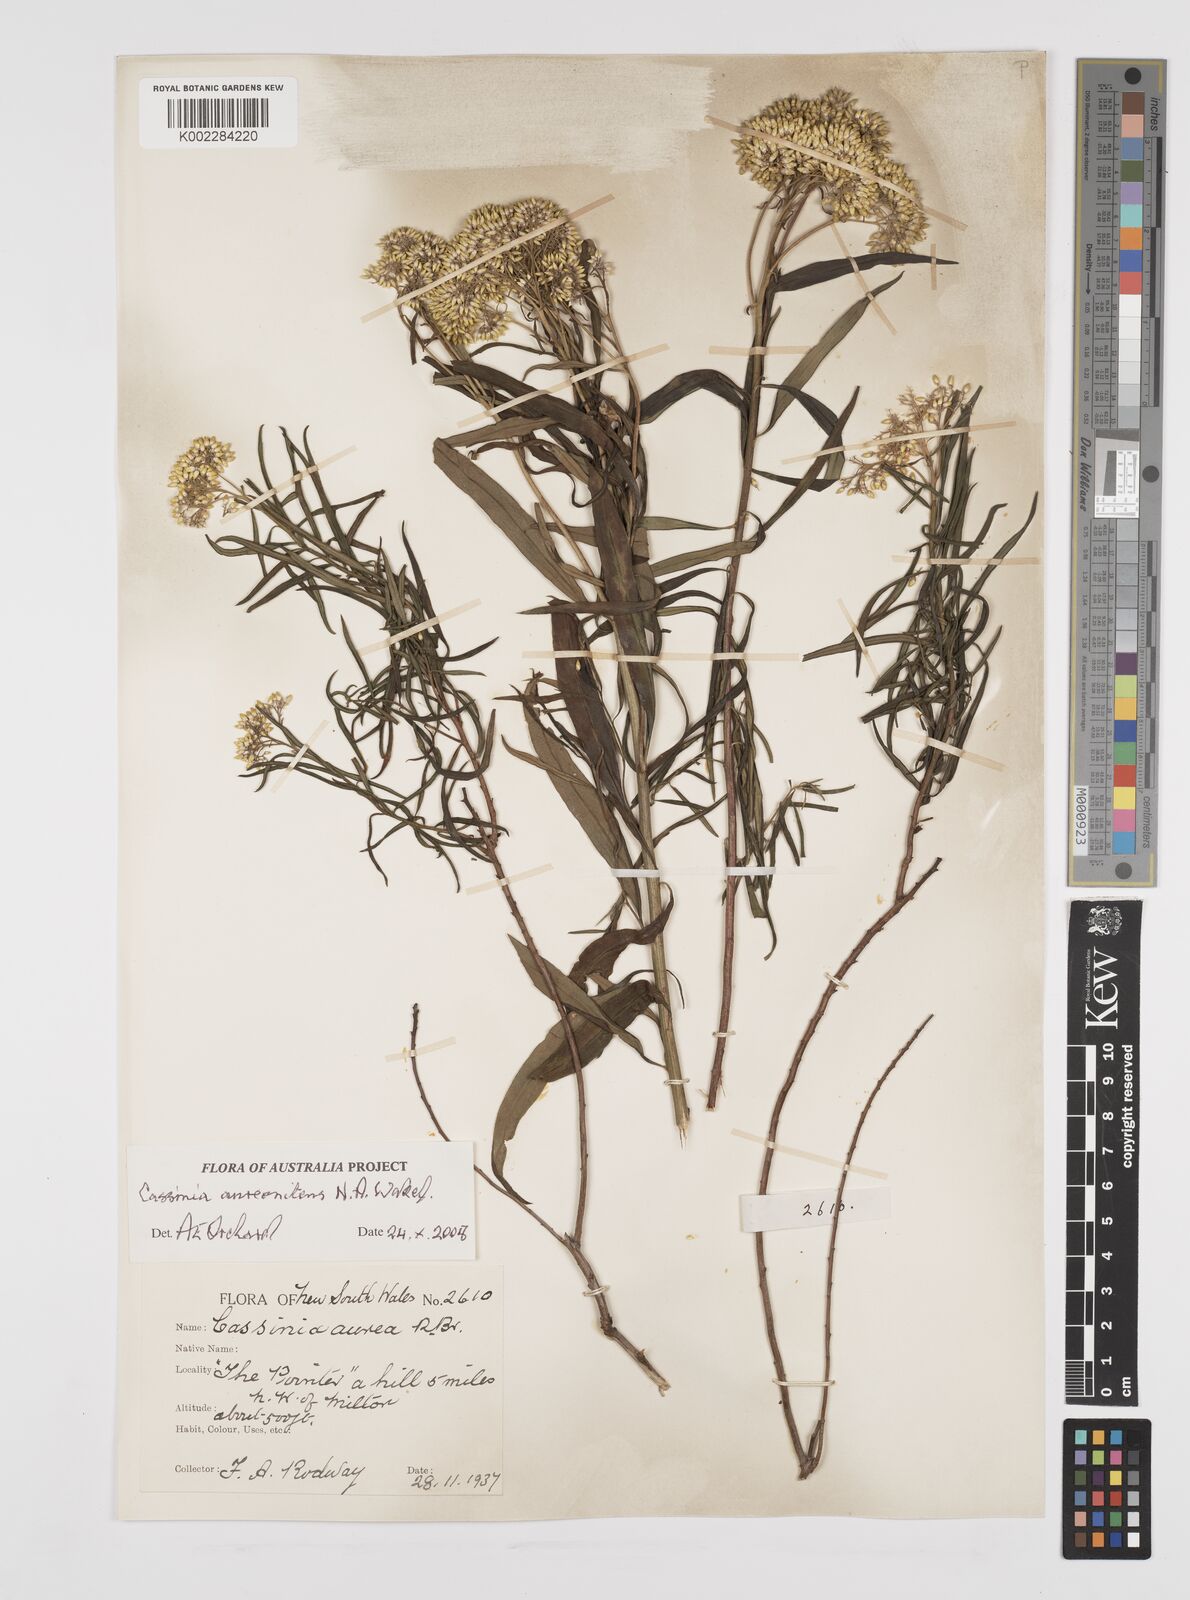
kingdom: Plantae
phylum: Tracheophyta
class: Magnoliopsida
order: Asterales
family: Asteraceae
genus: Cassinia
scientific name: Cassinia aureonitens
